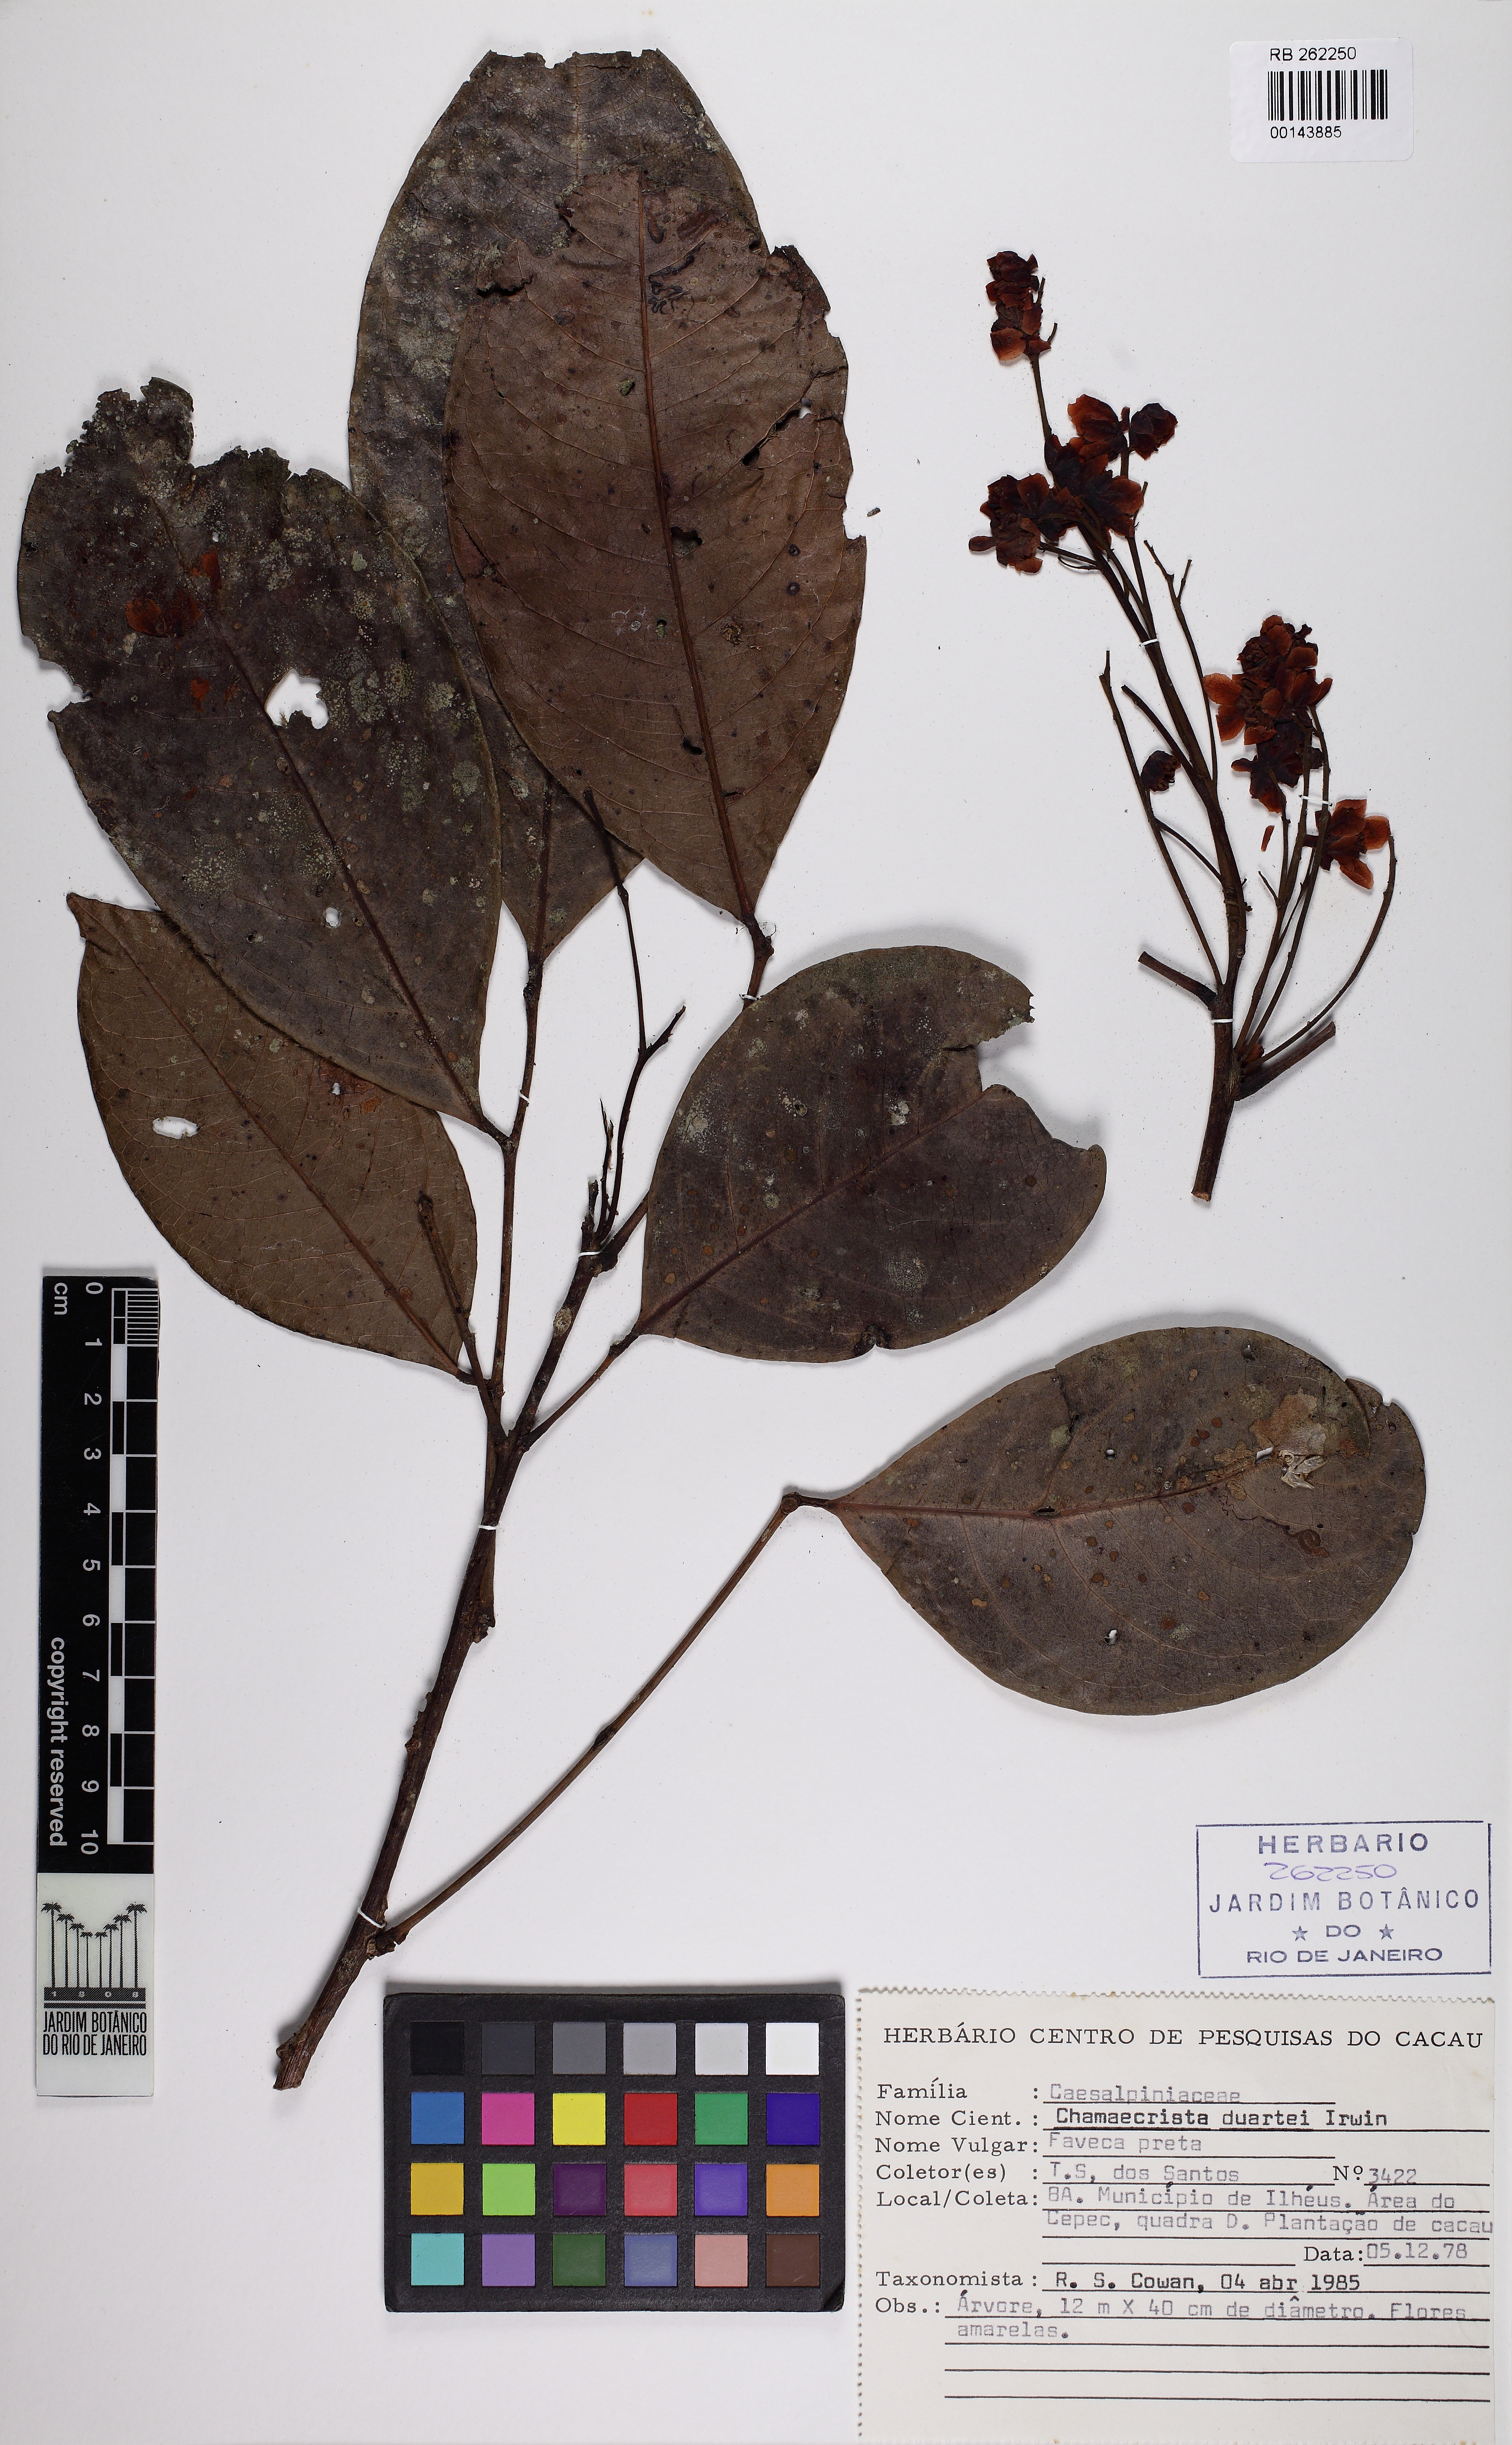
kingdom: Plantae
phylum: Tracheophyta
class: Magnoliopsida
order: Fabales
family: Fabaceae
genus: Chamaecrista
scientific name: Chamaecrista duartei
